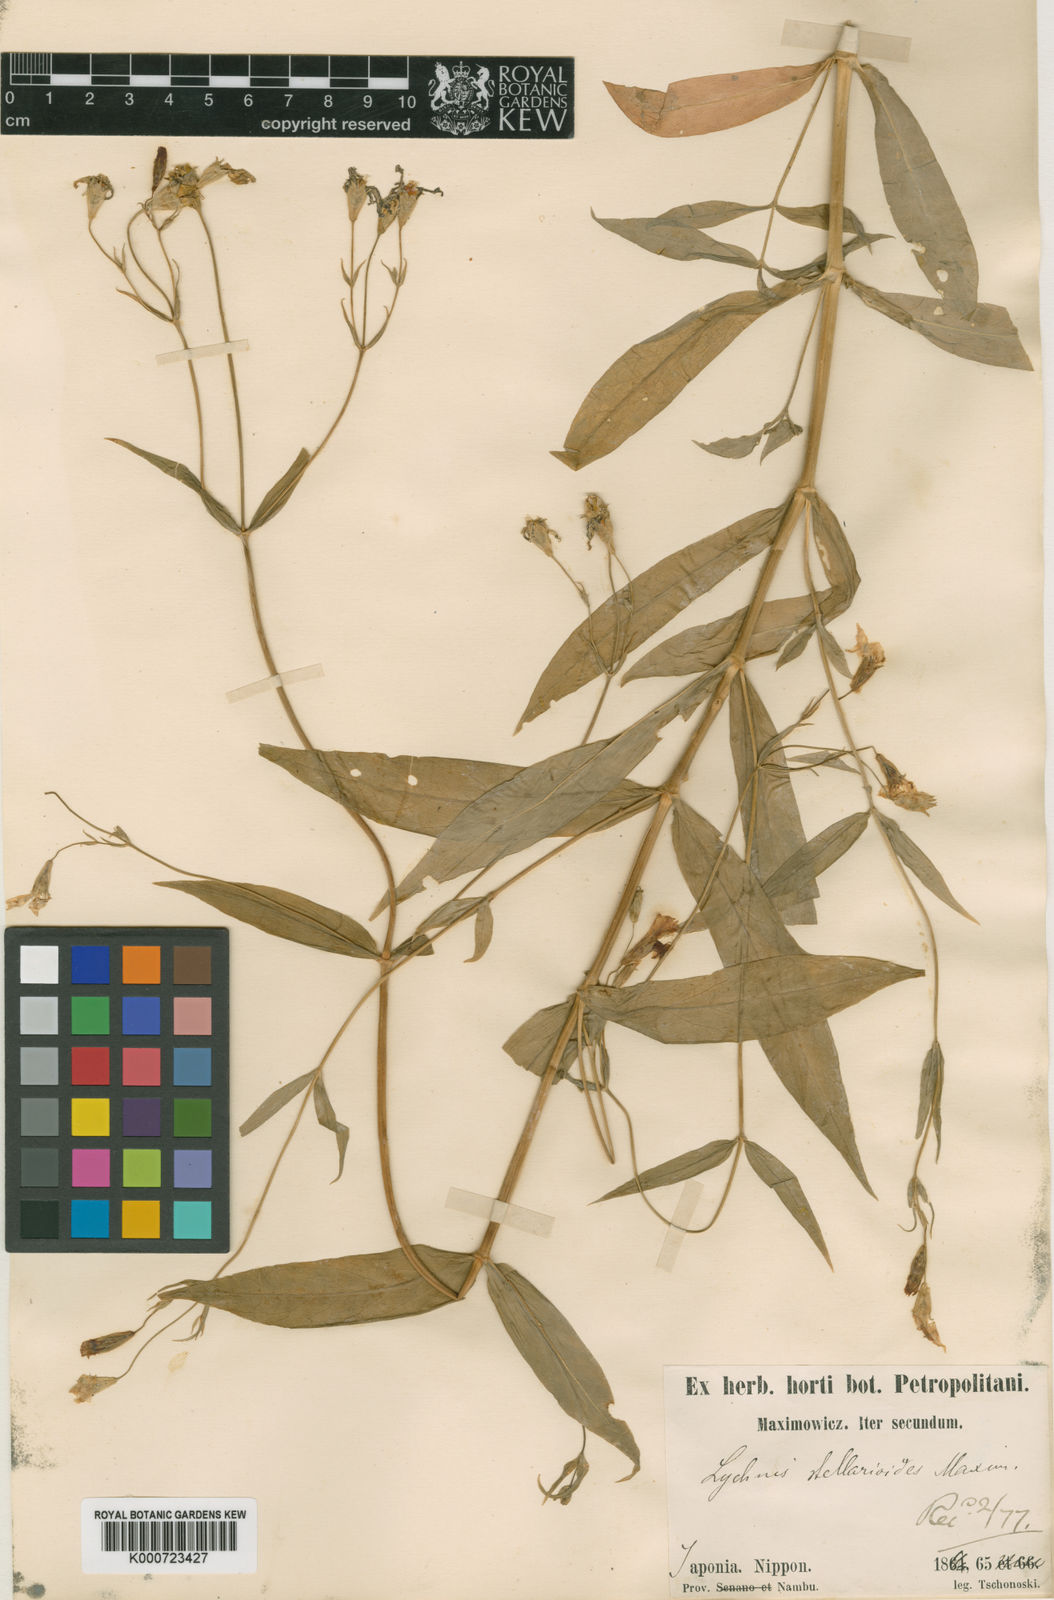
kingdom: Plantae
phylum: Tracheophyta
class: Magnoliopsida
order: Caryophyllales
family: Caryophyllaceae
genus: Silene
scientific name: Silene gracillima
